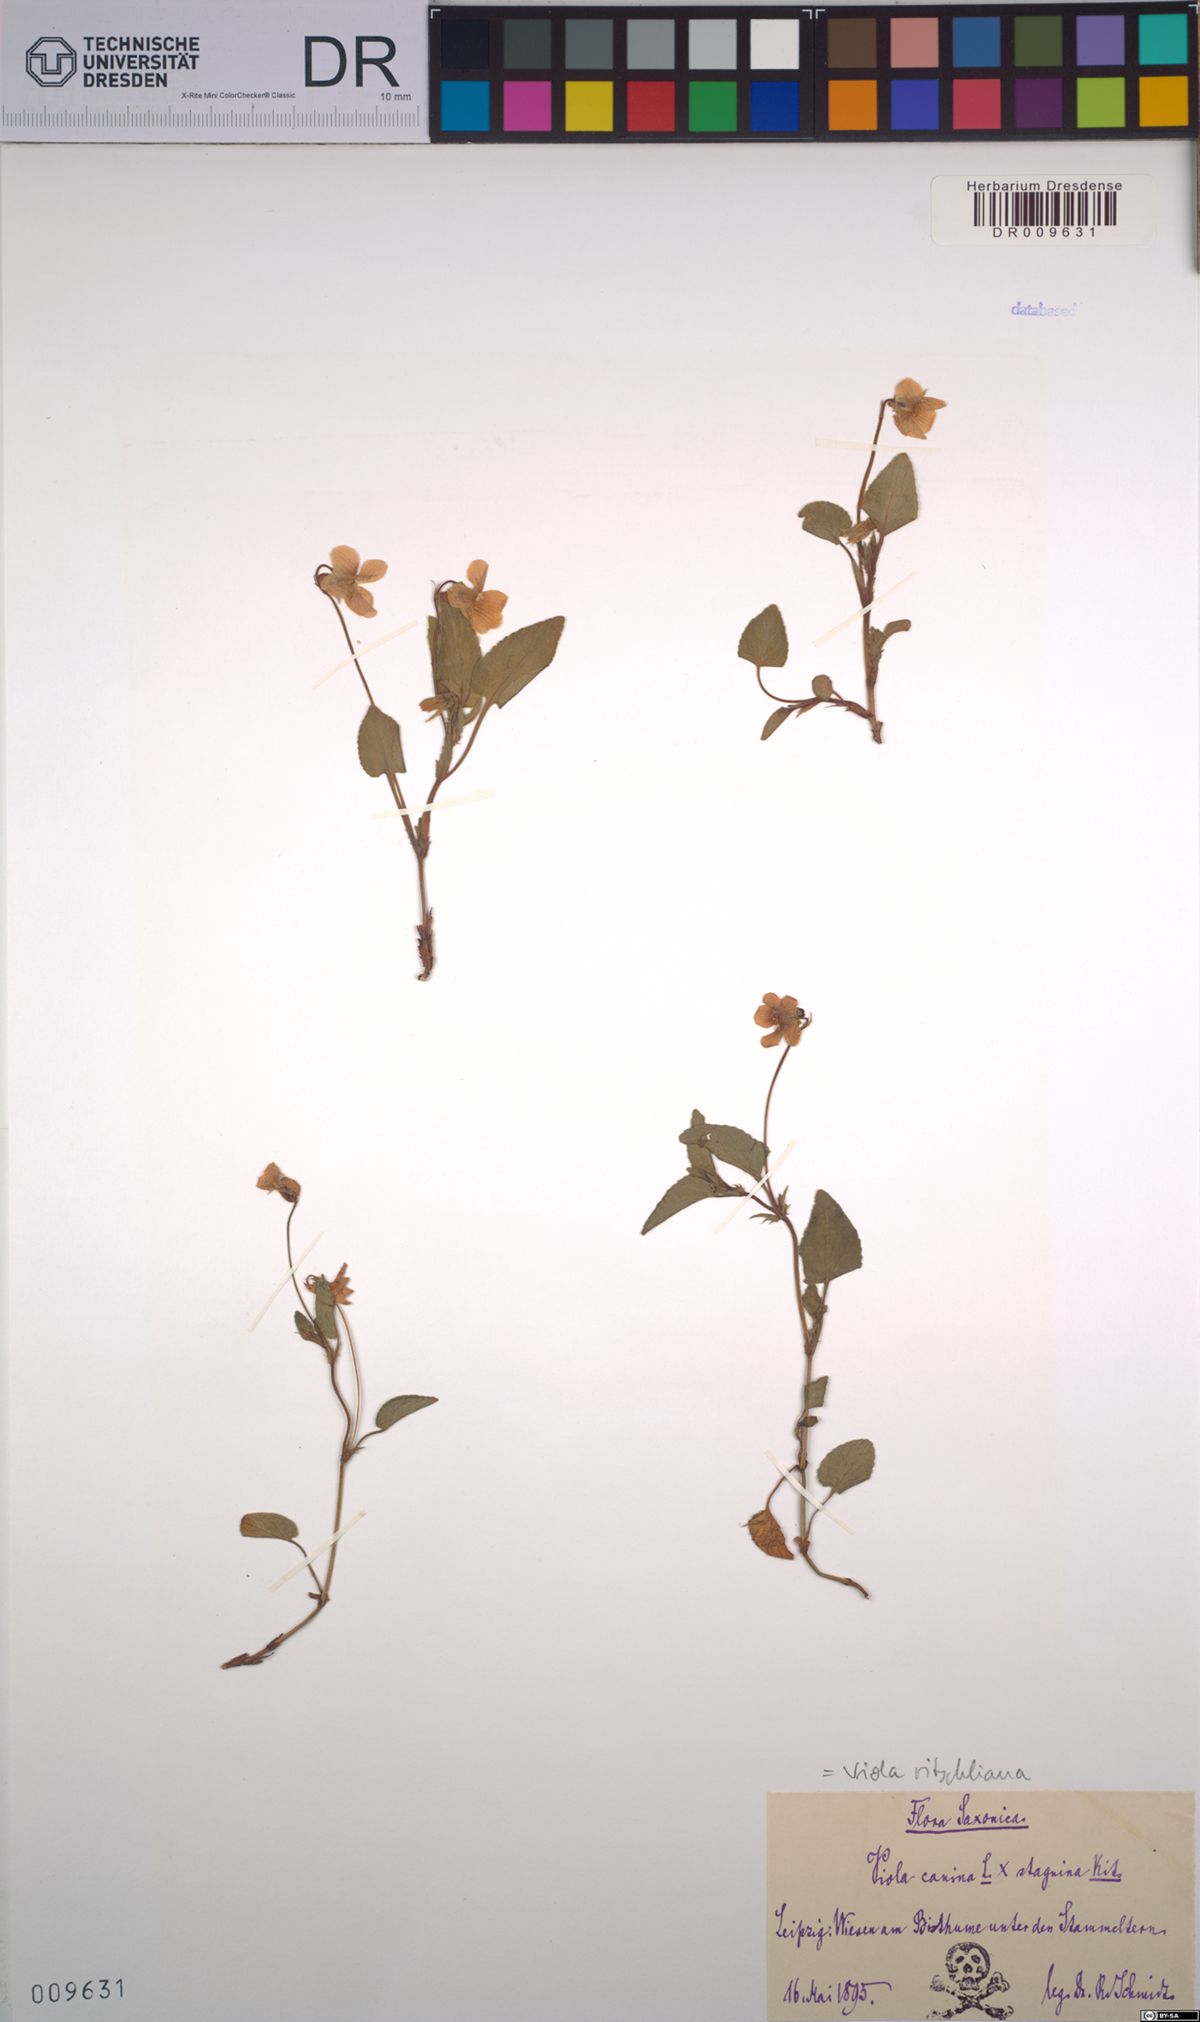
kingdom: Plantae
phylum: Tracheophyta
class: Magnoliopsida
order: Malpighiales
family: Violaceae
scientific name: Violaceae
